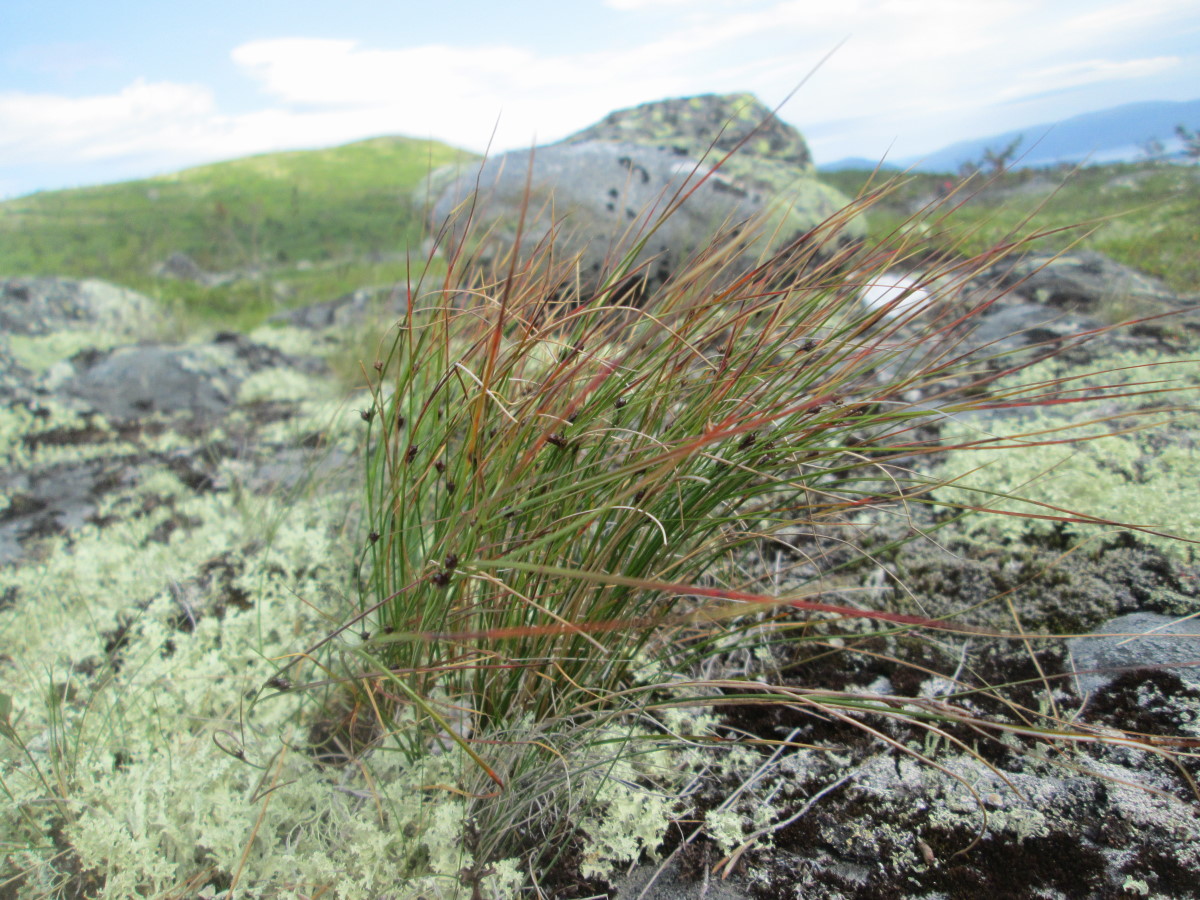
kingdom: Plantae
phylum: Tracheophyta
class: Liliopsida
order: Poales
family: Juncaceae
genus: Oreojuncus
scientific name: Oreojuncus trifidus
